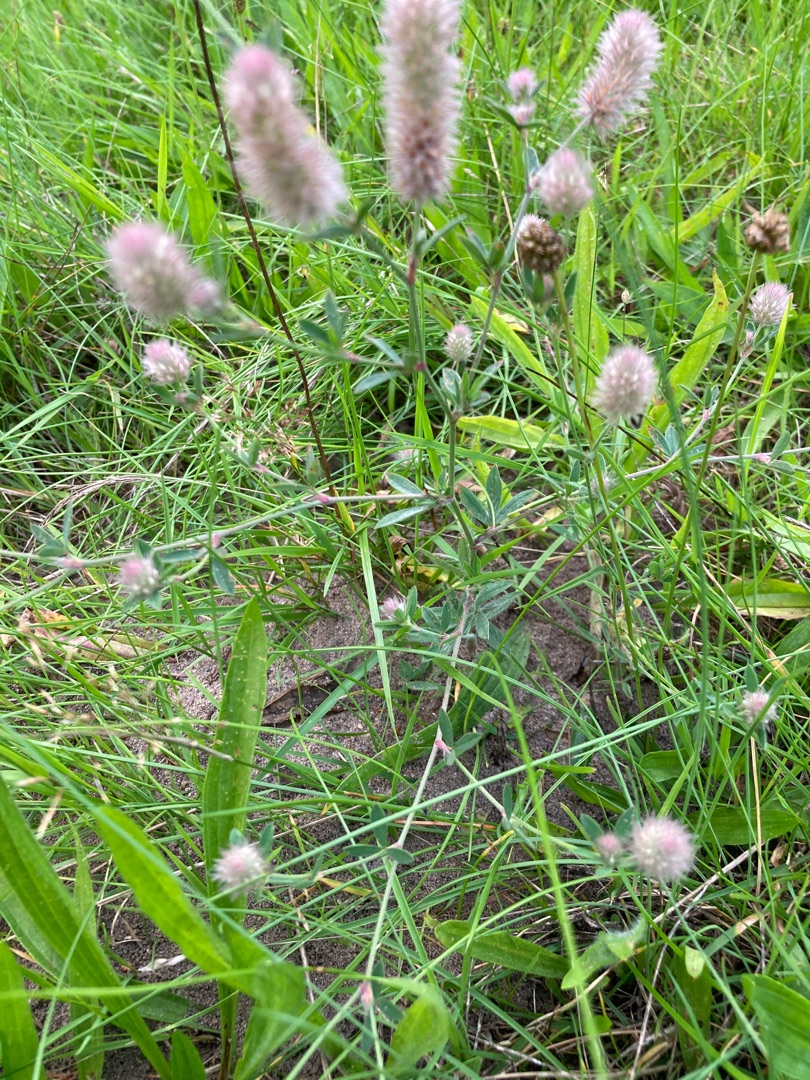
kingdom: Plantae
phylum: Tracheophyta
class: Magnoliopsida
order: Fabales
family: Fabaceae
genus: Trifolium
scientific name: Trifolium arvense
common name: Hare-kløver
